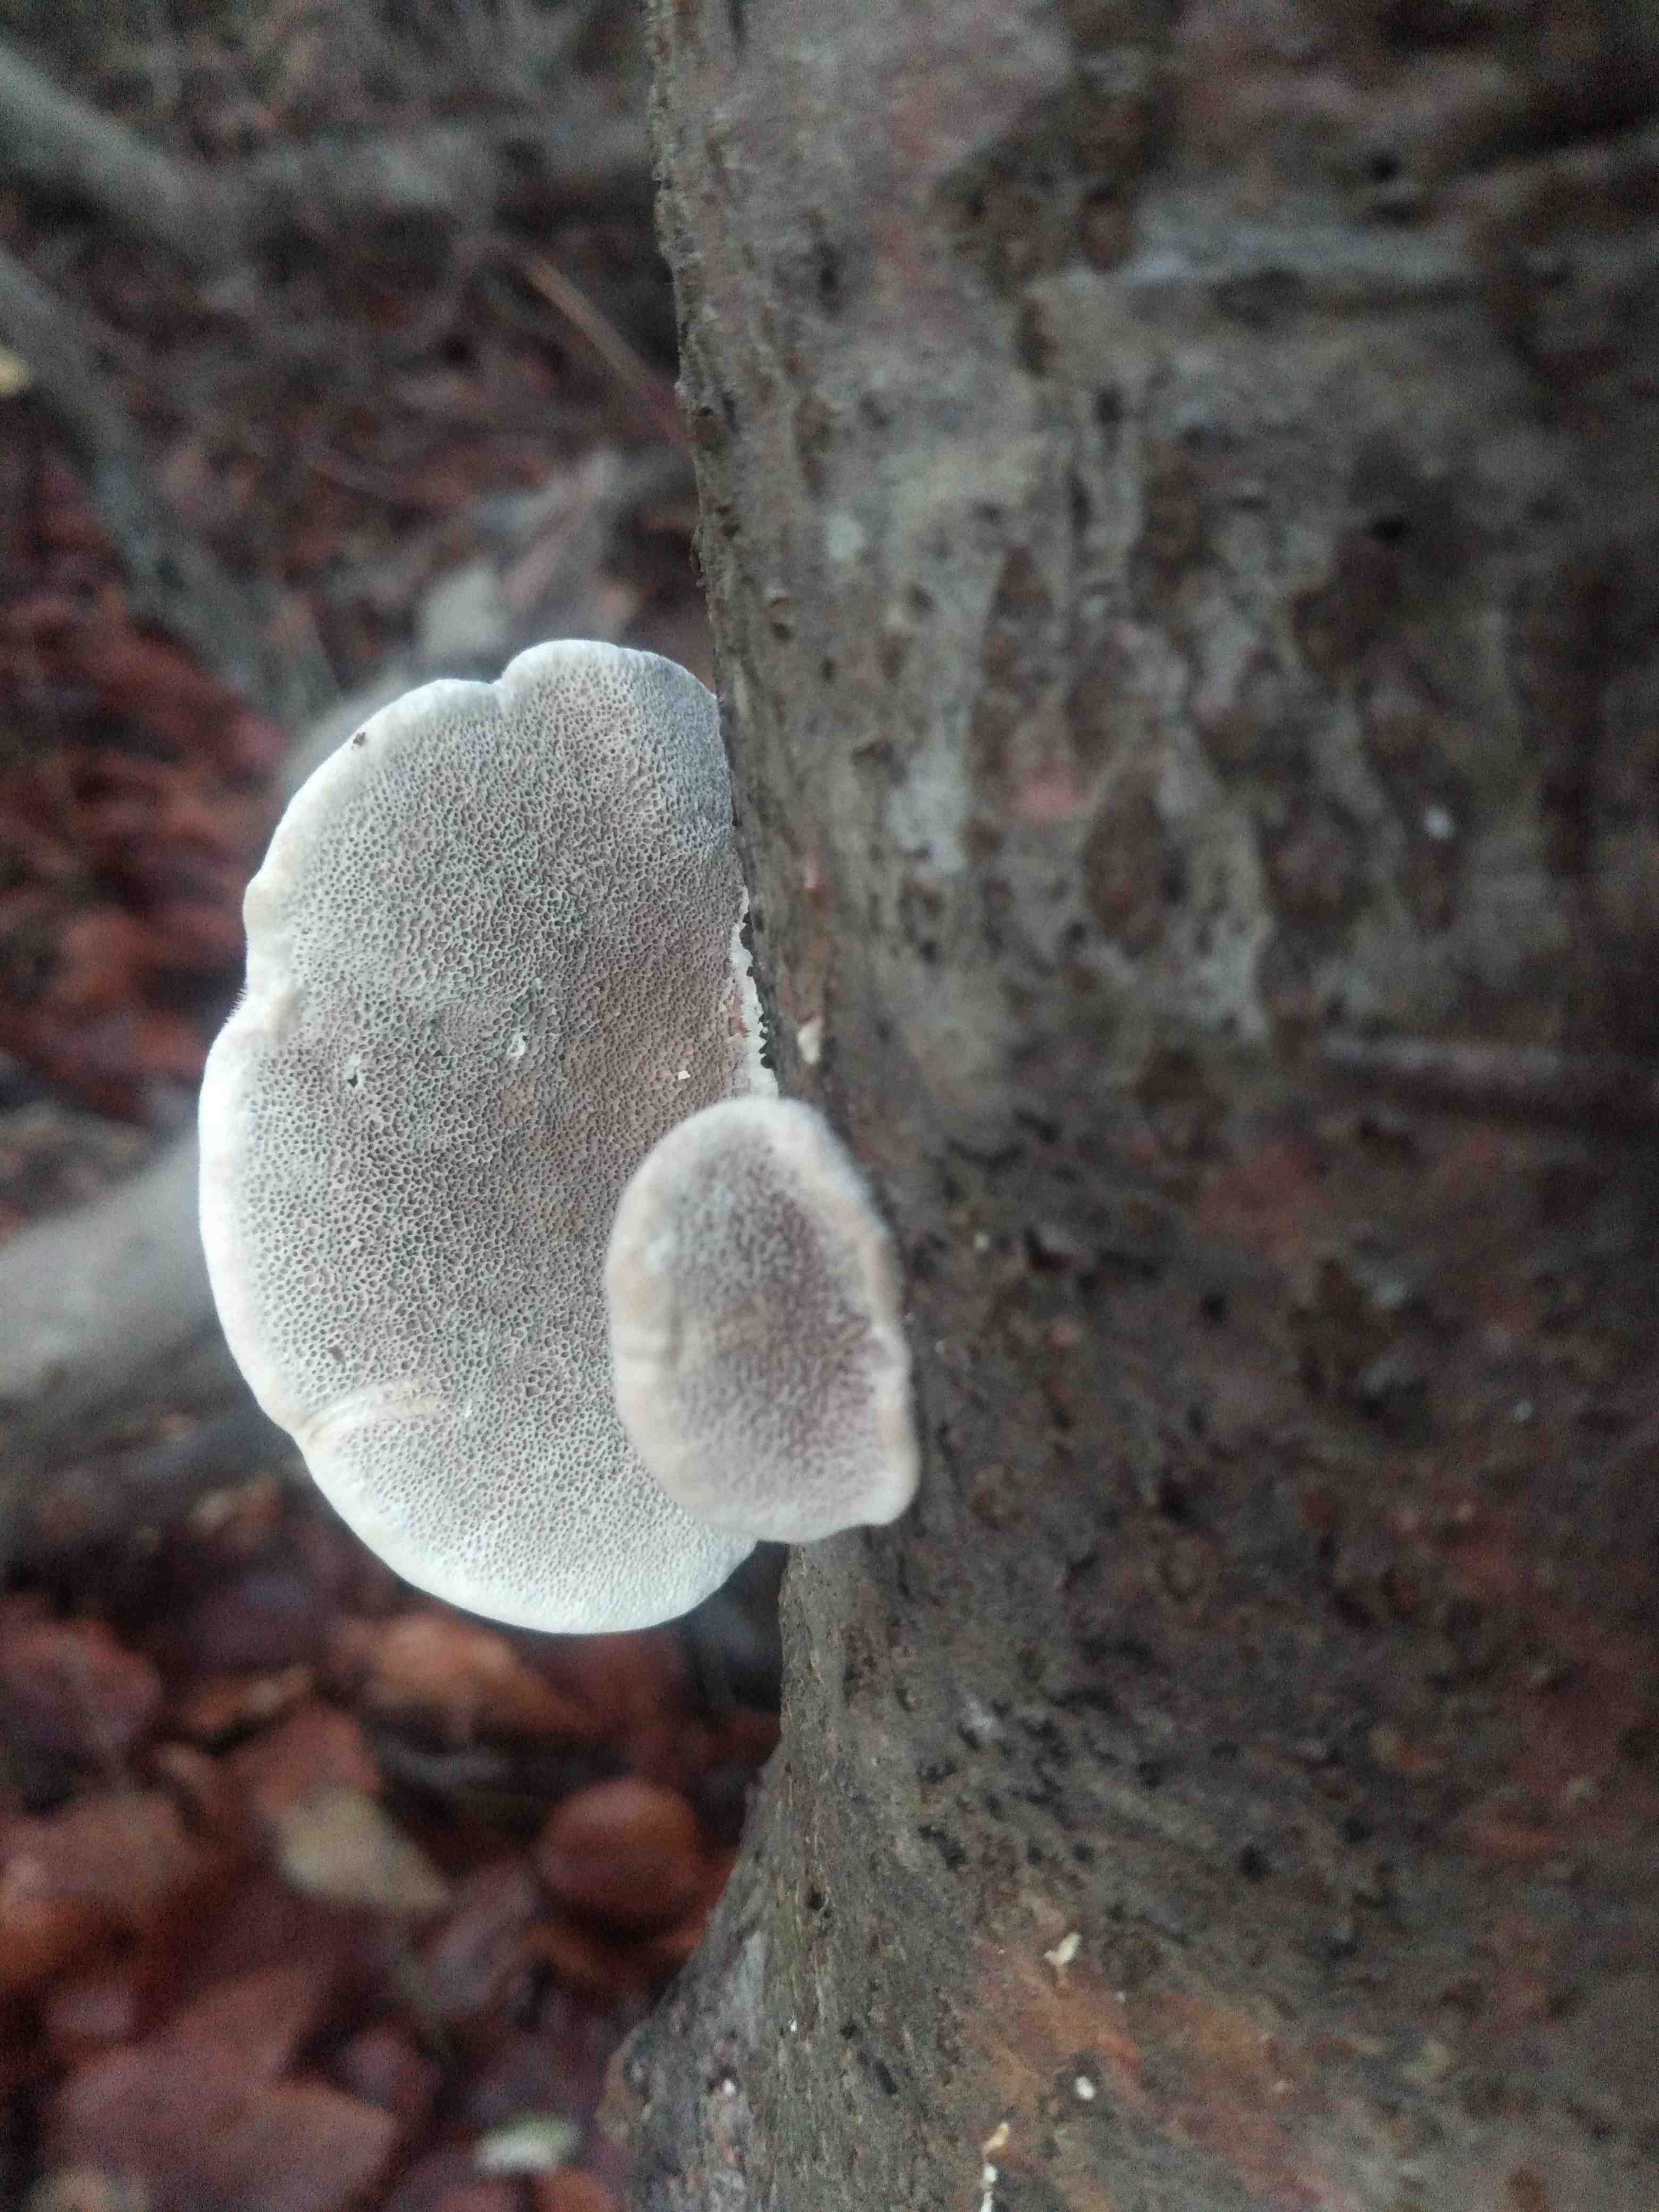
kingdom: Fungi
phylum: Basidiomycota
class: Agaricomycetes
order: Polyporales
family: Polyporaceae
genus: Trametes
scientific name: Trametes hirsuta
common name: håret læderporesvamp
